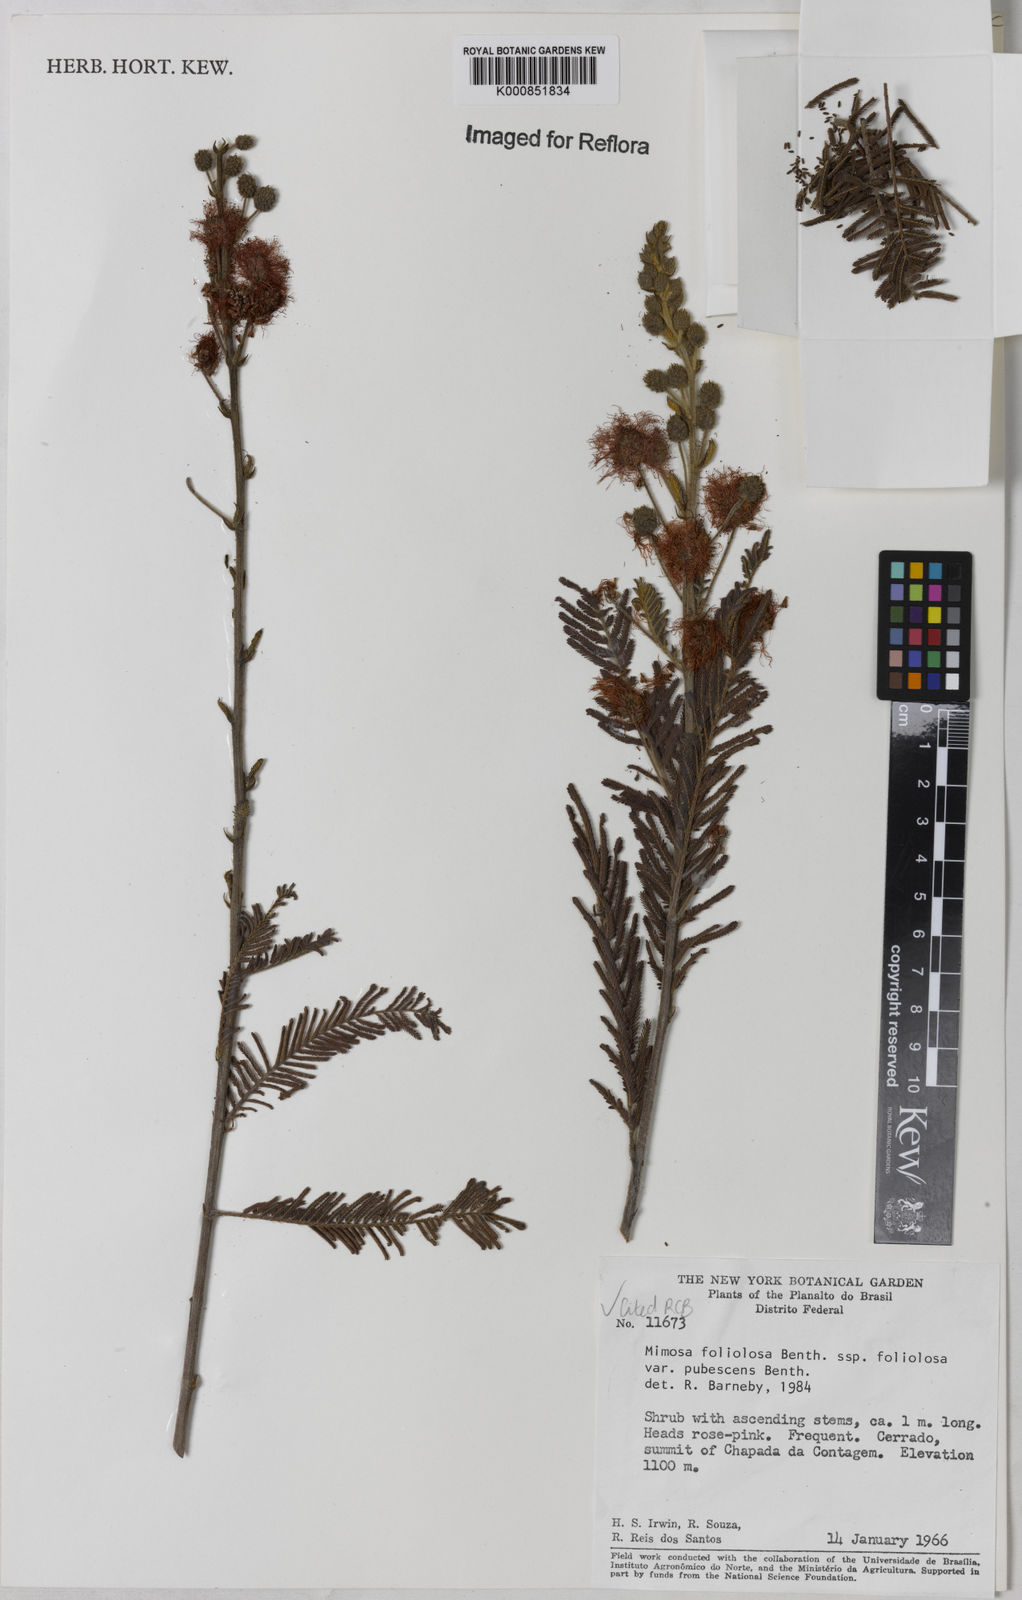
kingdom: Plantae
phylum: Tracheophyta
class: Magnoliopsida
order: Fabales
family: Fabaceae
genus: Mimosa
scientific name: Mimosa foliolosa
